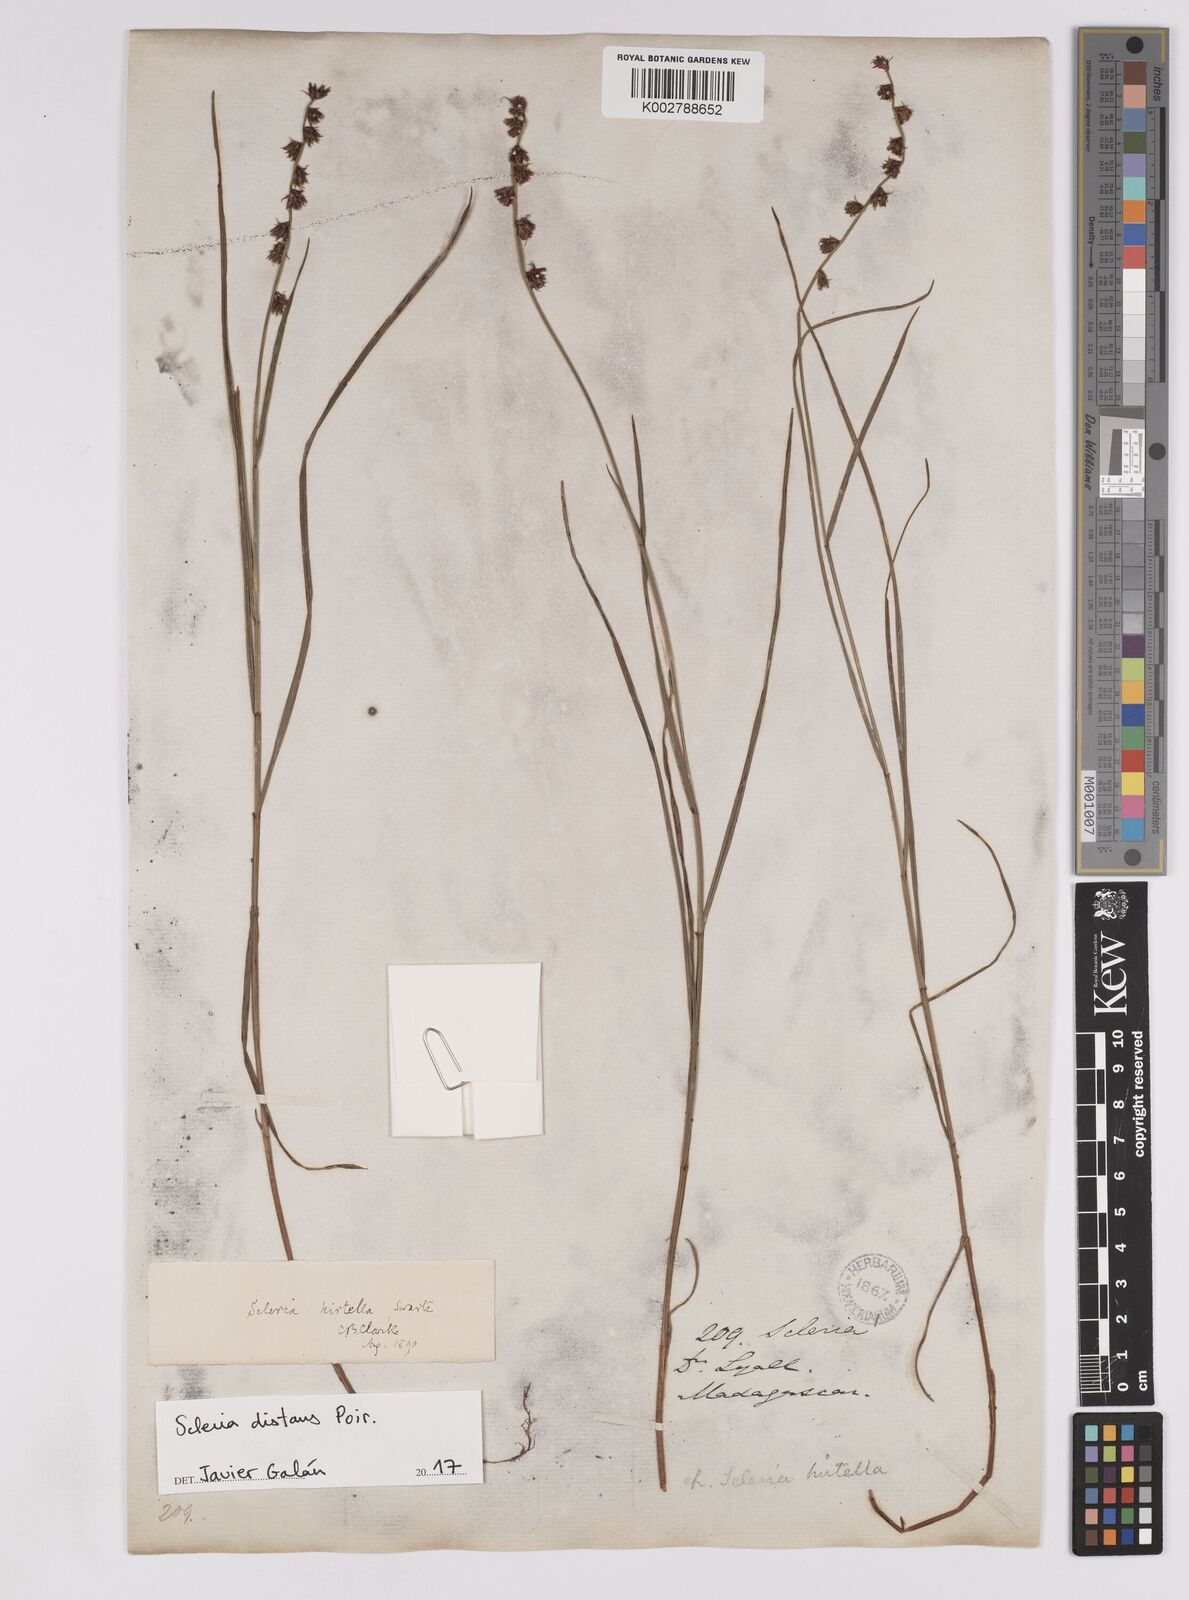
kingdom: Plantae
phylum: Tracheophyta
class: Liliopsida
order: Poales
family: Cyperaceae
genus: Scleria
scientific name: Scleria distans
